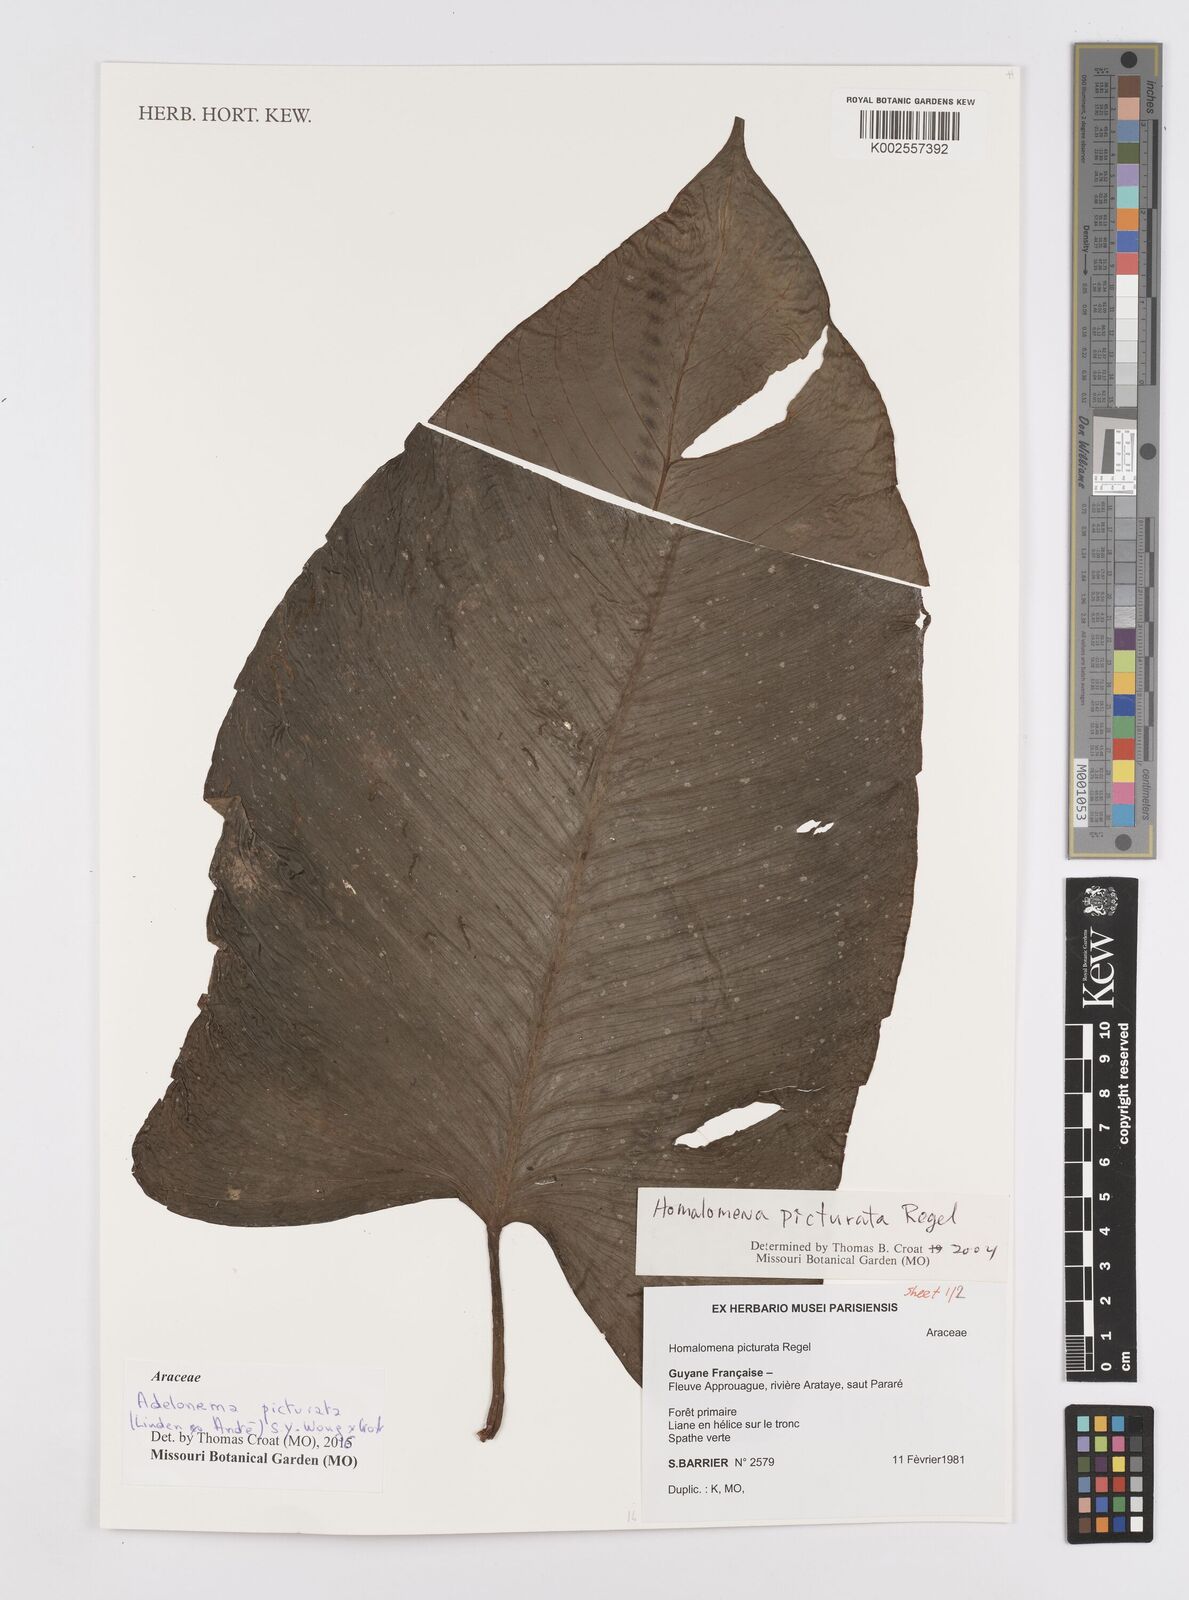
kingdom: Plantae
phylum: Tracheophyta
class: Liliopsida
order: Alismatales
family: Araceae
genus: Adelonema
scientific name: Adelonema picturatum
